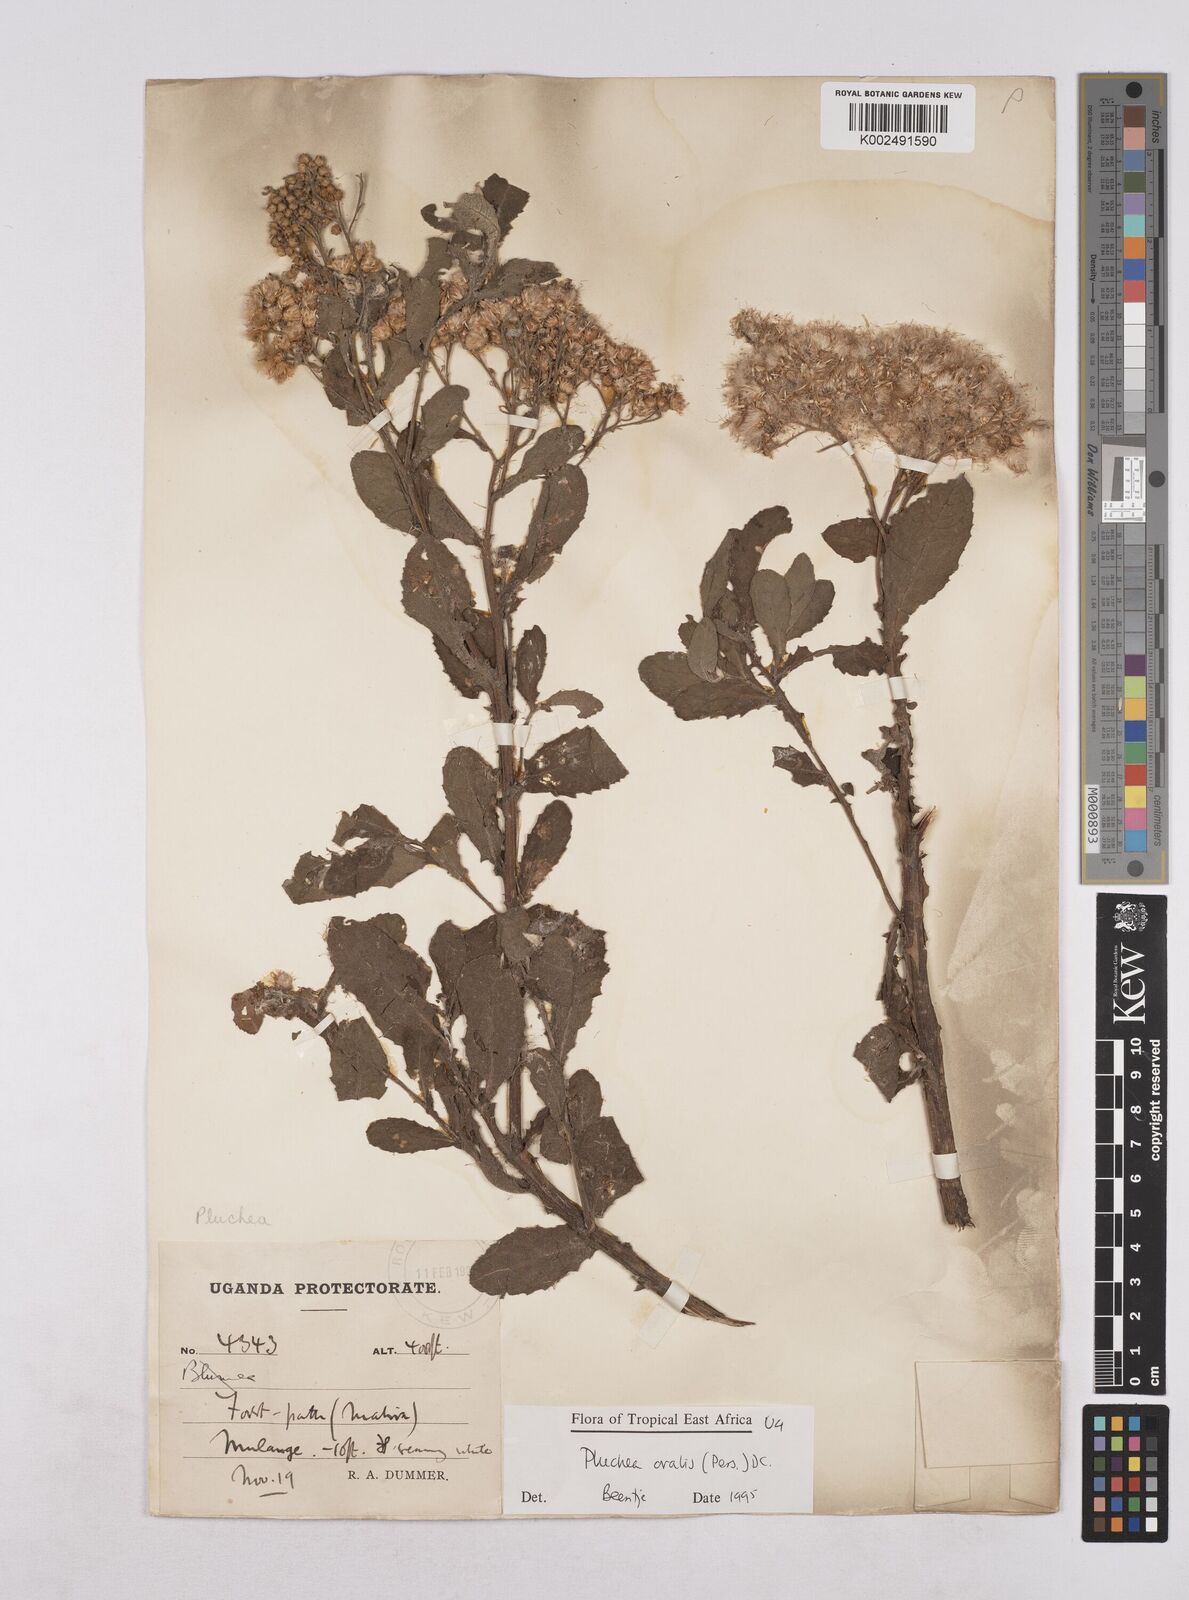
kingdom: Plantae
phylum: Tracheophyta
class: Magnoliopsida
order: Asterales
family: Asteraceae
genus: Pluchea
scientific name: Pluchea ovalis
